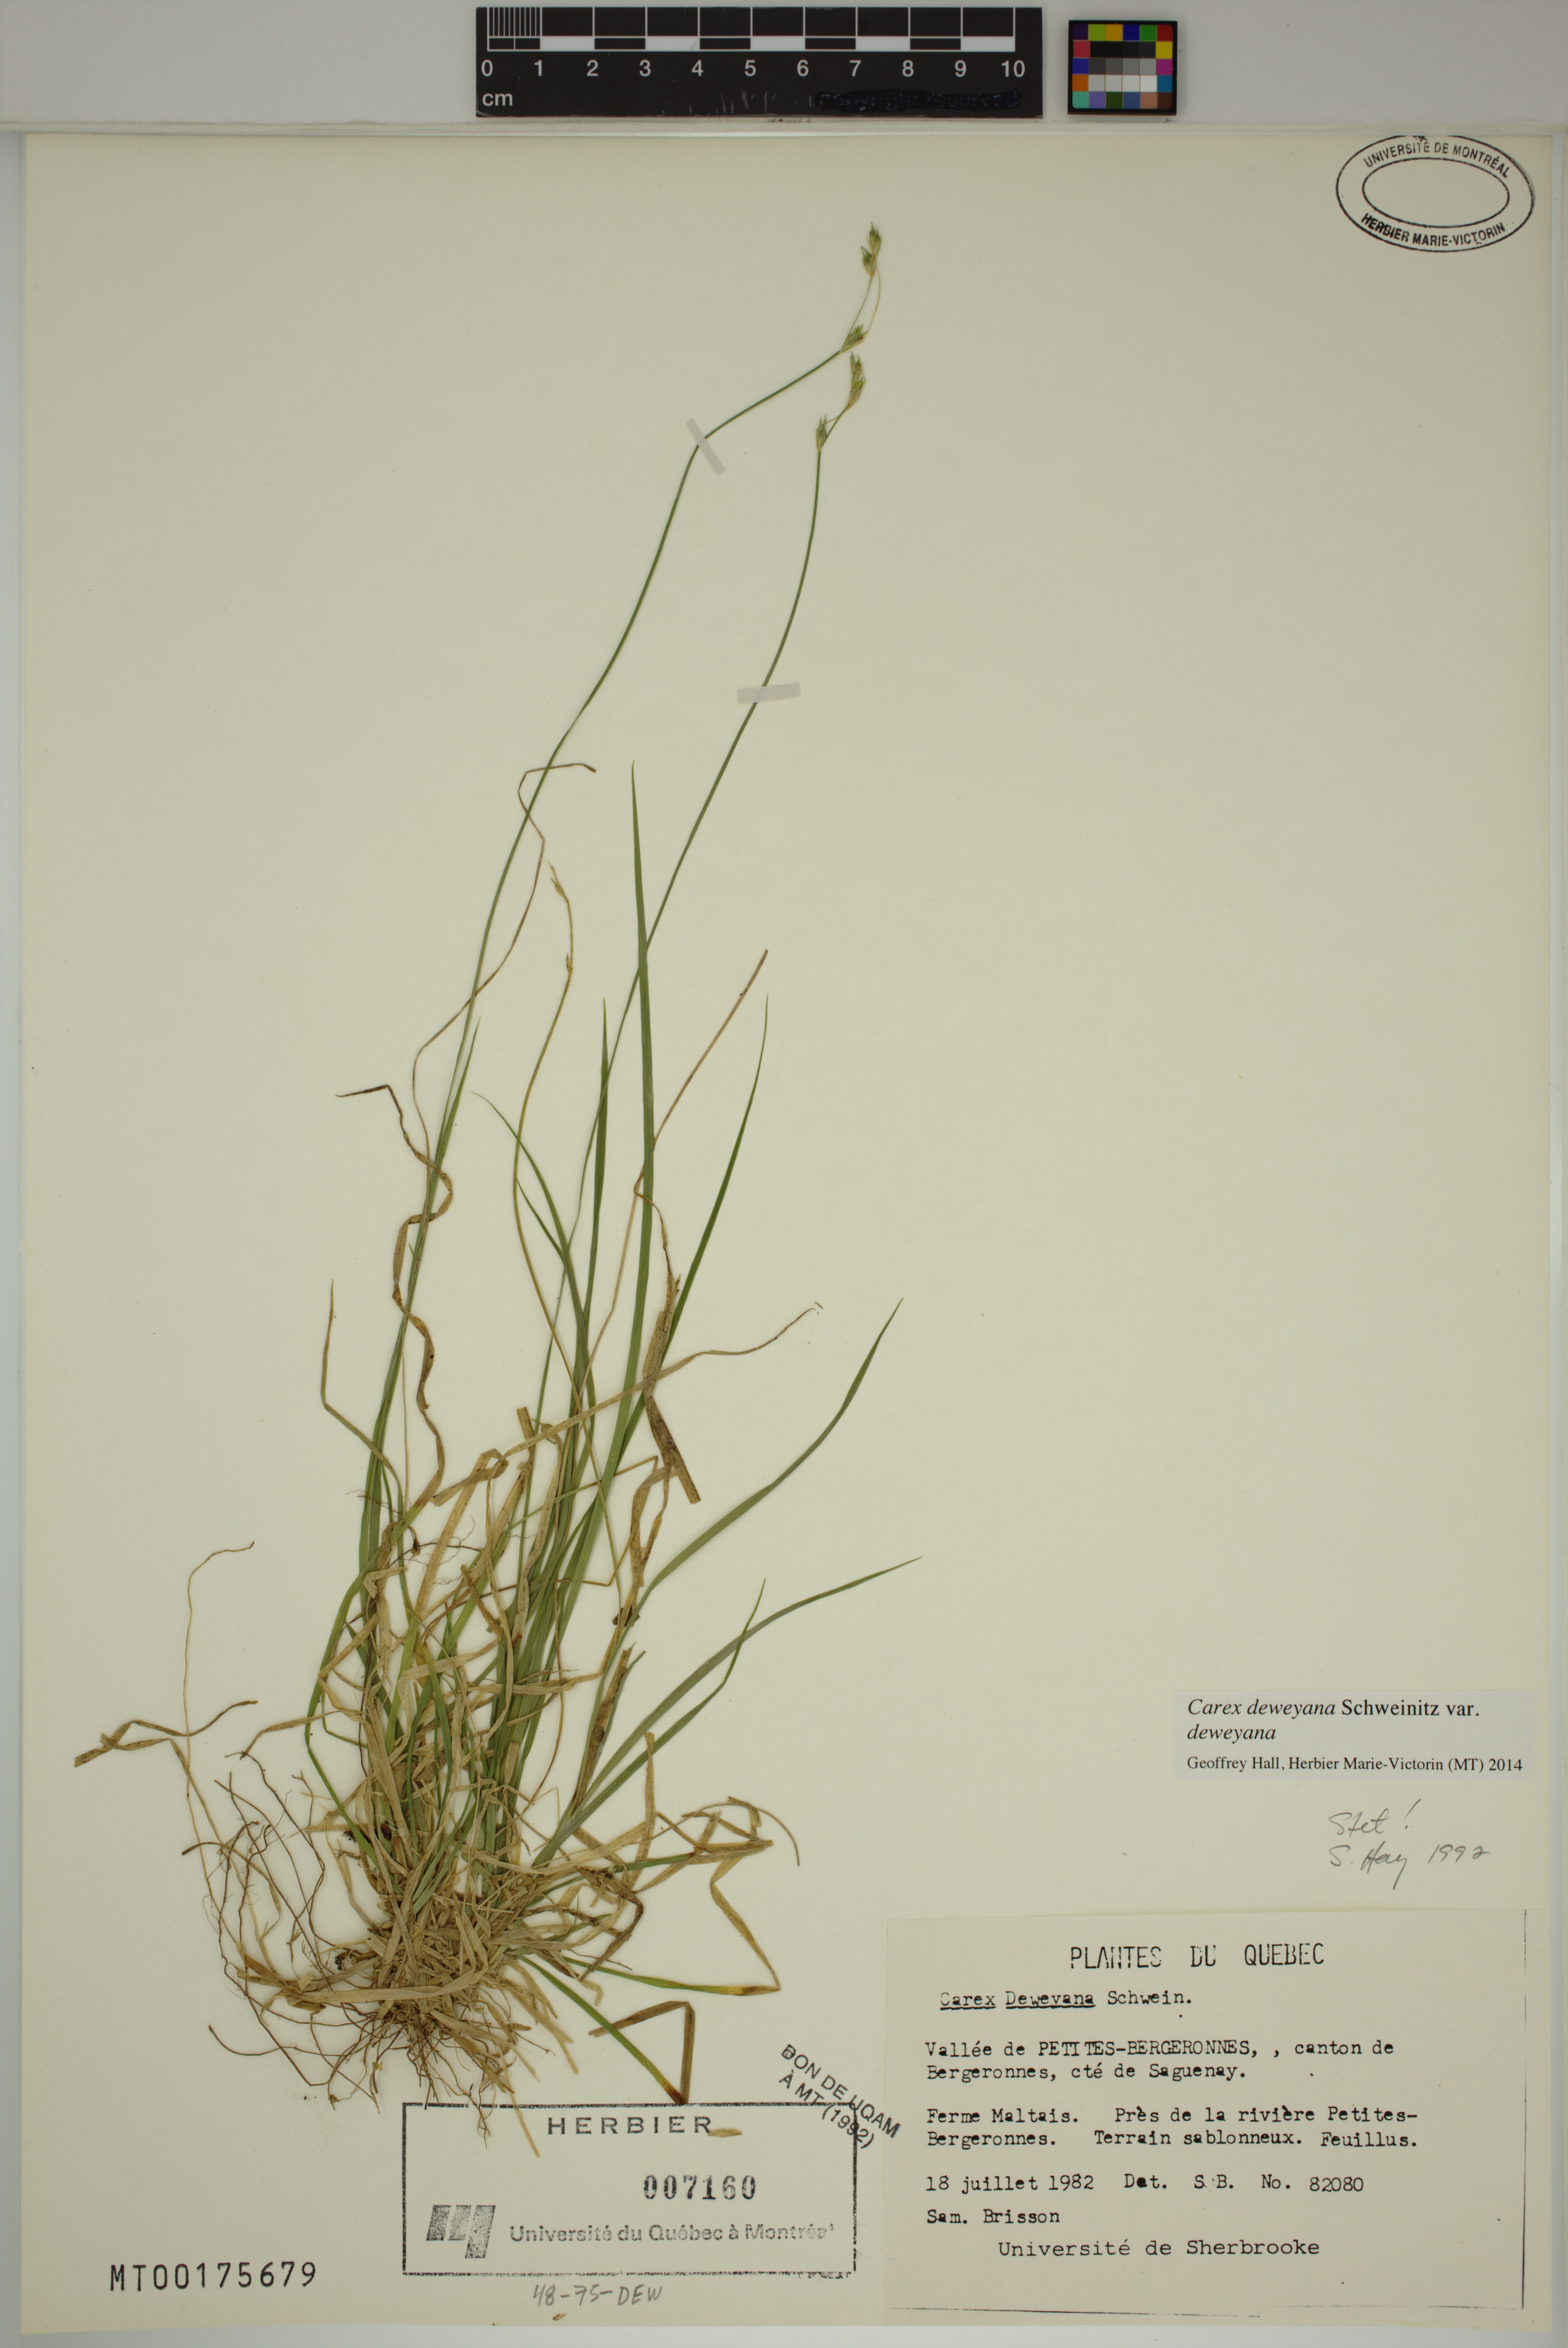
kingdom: Plantae
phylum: Tracheophyta
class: Liliopsida
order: Poales
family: Cyperaceae
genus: Carex
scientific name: Carex deweyana
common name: Dewey's sedge
